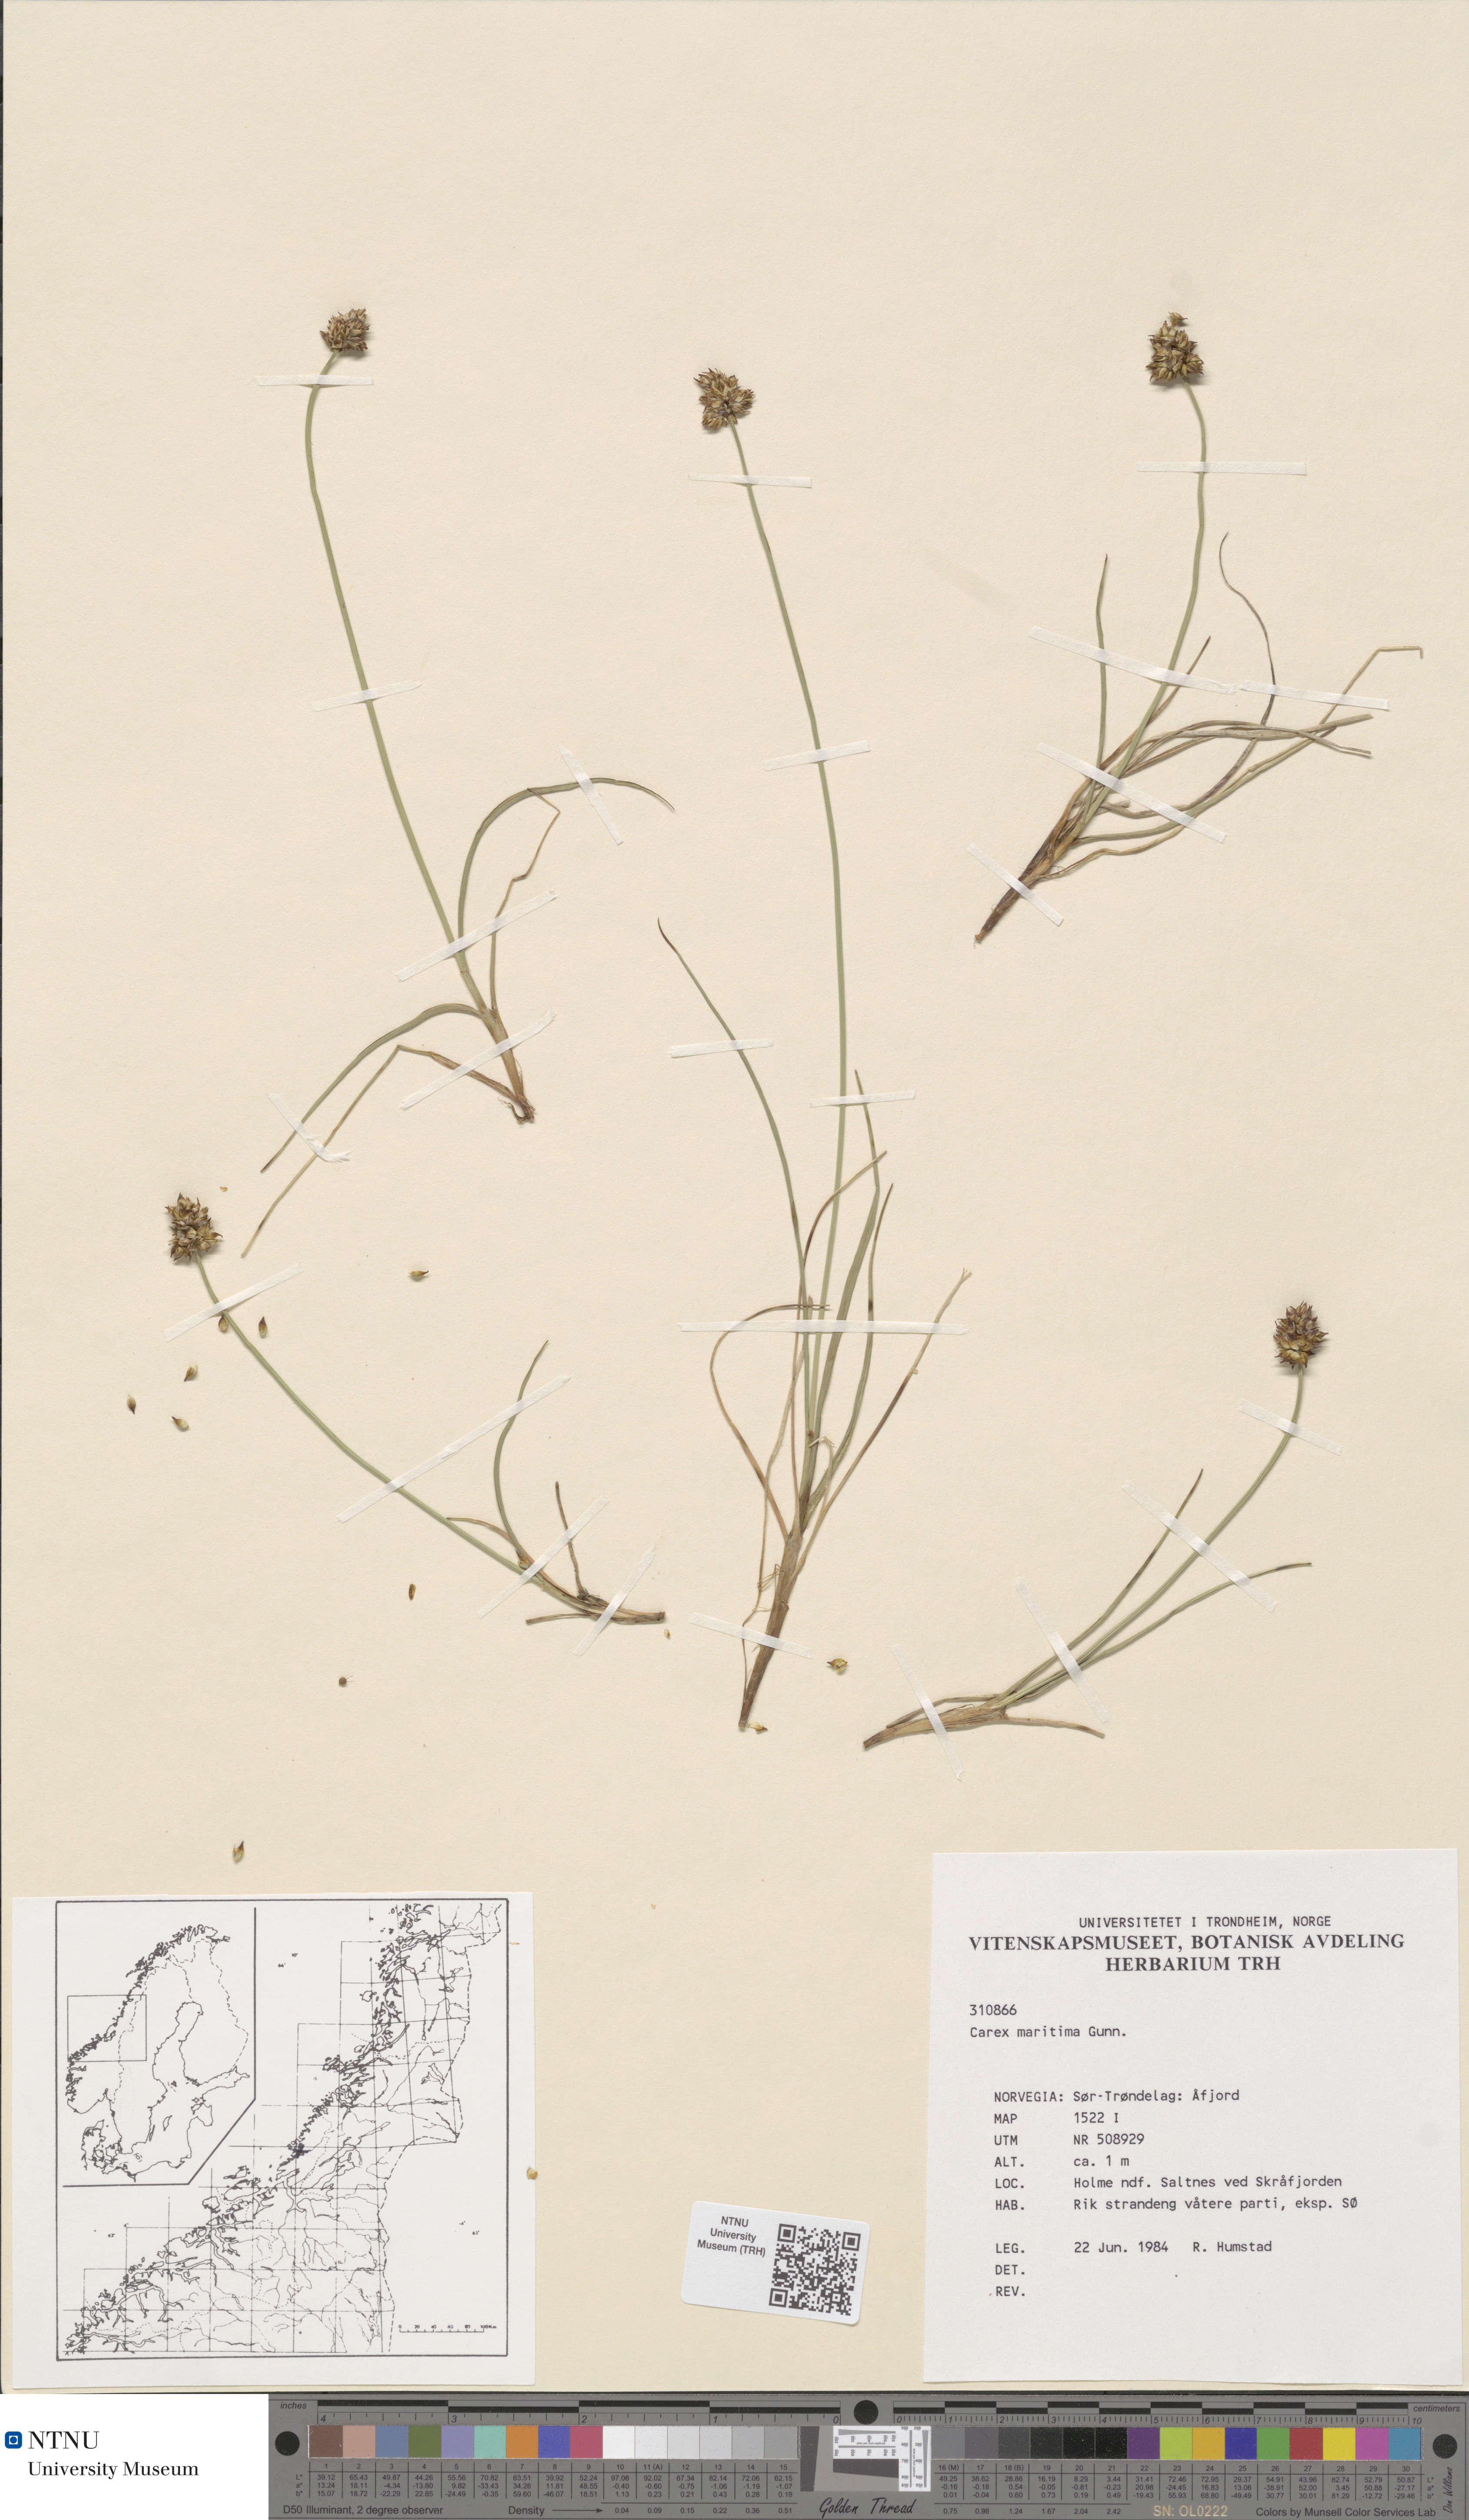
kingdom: Plantae
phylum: Tracheophyta
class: Liliopsida
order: Poales
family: Cyperaceae
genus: Carex
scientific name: Carex maritima
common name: Curved sedge
